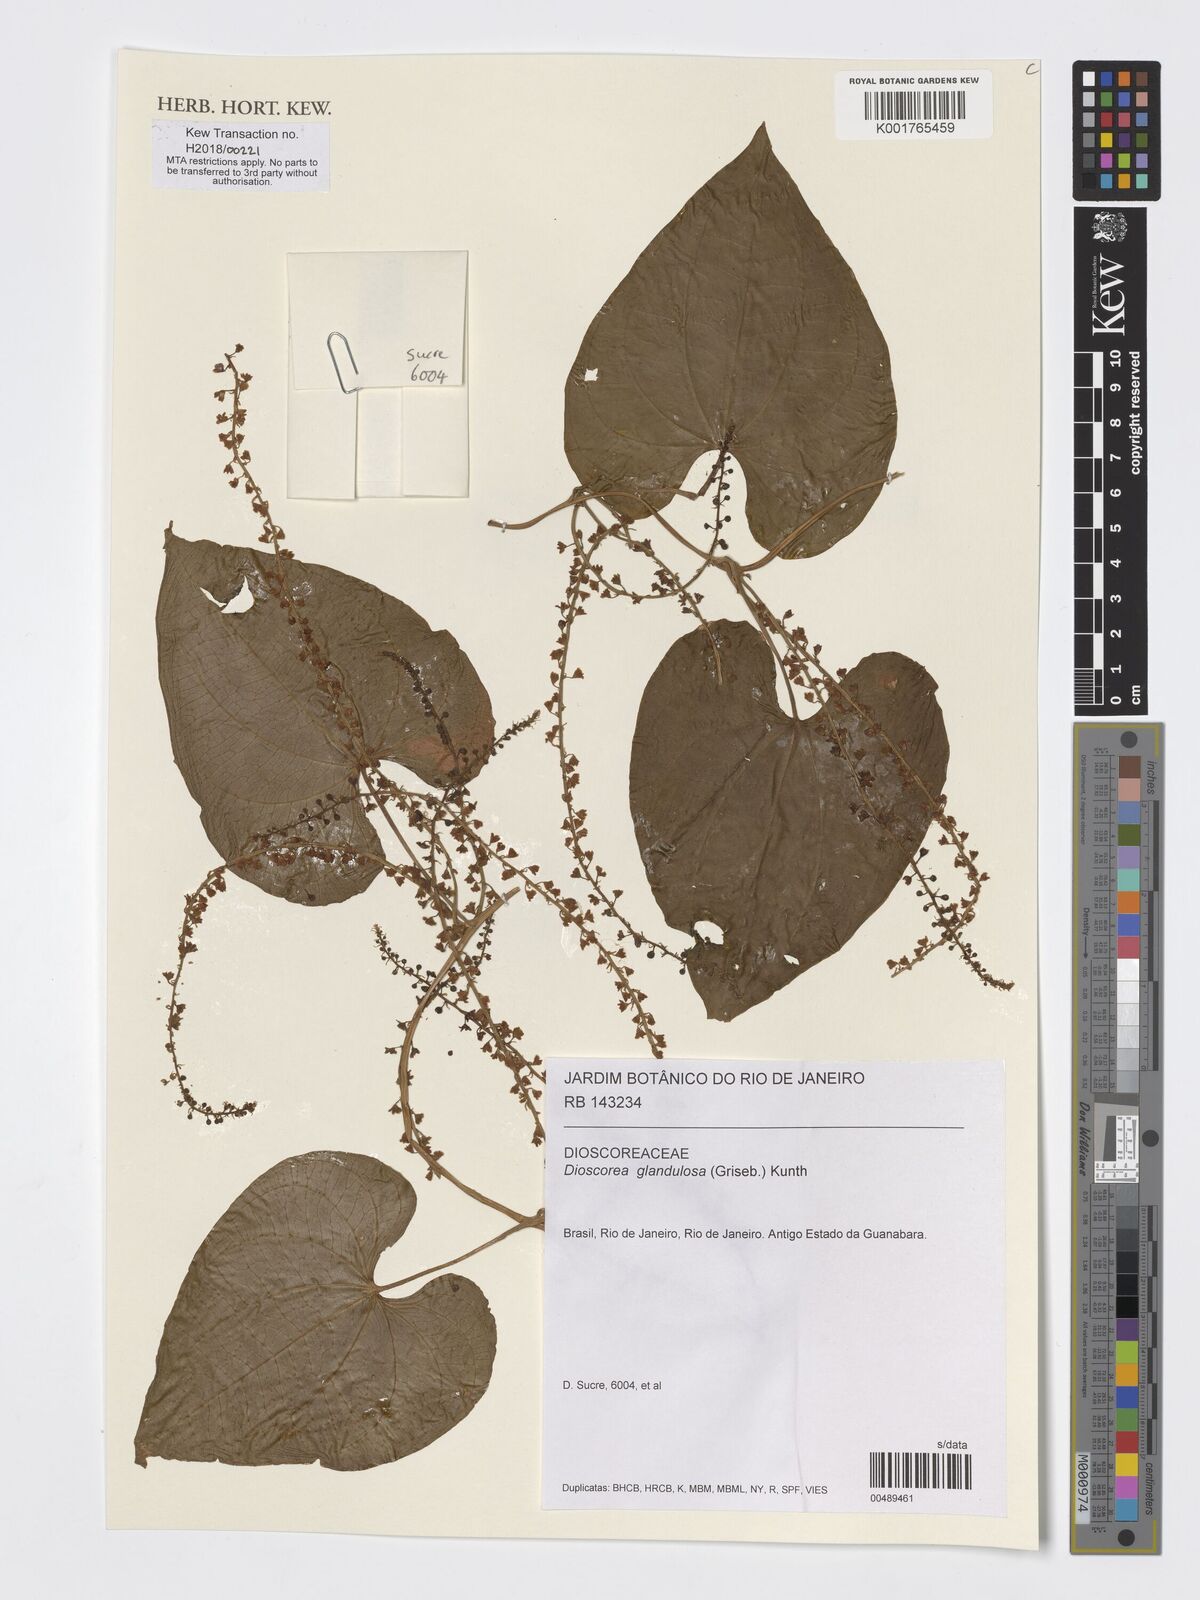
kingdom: Plantae
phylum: Tracheophyta
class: Liliopsida
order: Dioscoreales
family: Dioscoreaceae
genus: Dioscorea
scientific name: Dioscorea glandulosa
